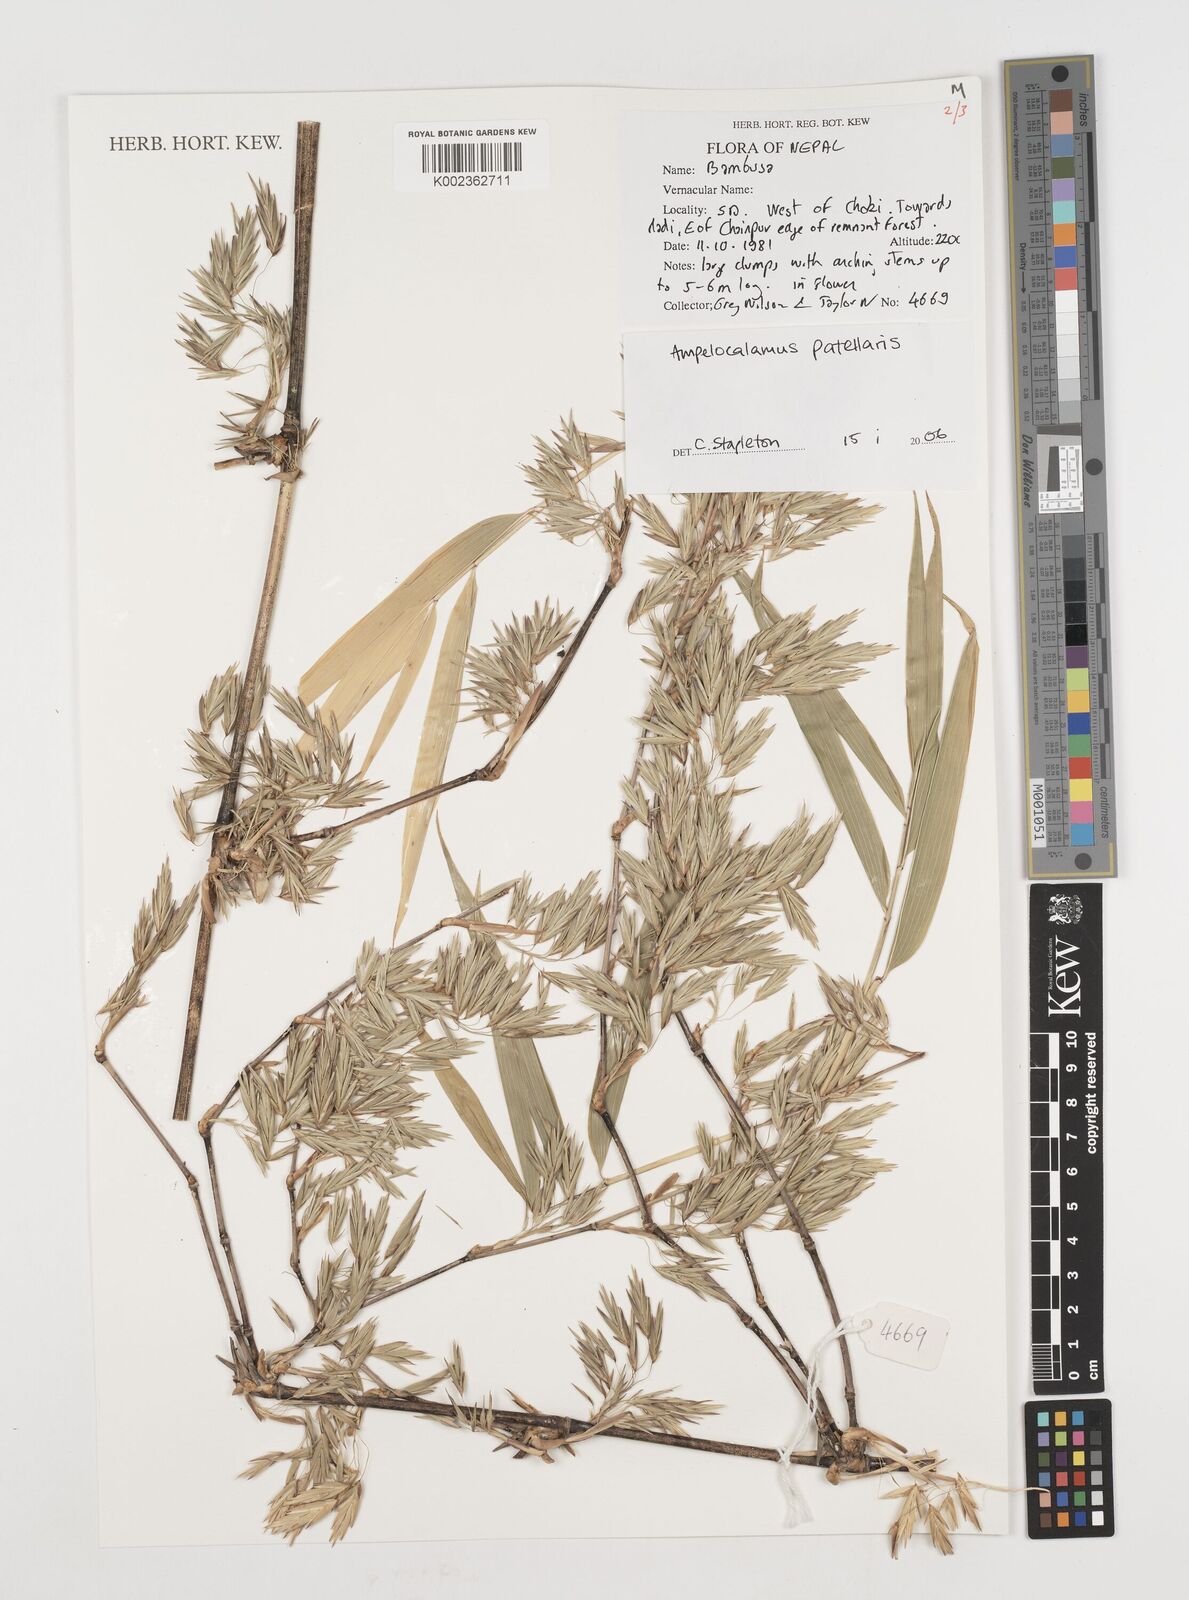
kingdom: Plantae
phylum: Tracheophyta
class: Liliopsida
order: Poales
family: Poaceae
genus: Ampelocalamus
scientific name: Ampelocalamus patellaris
